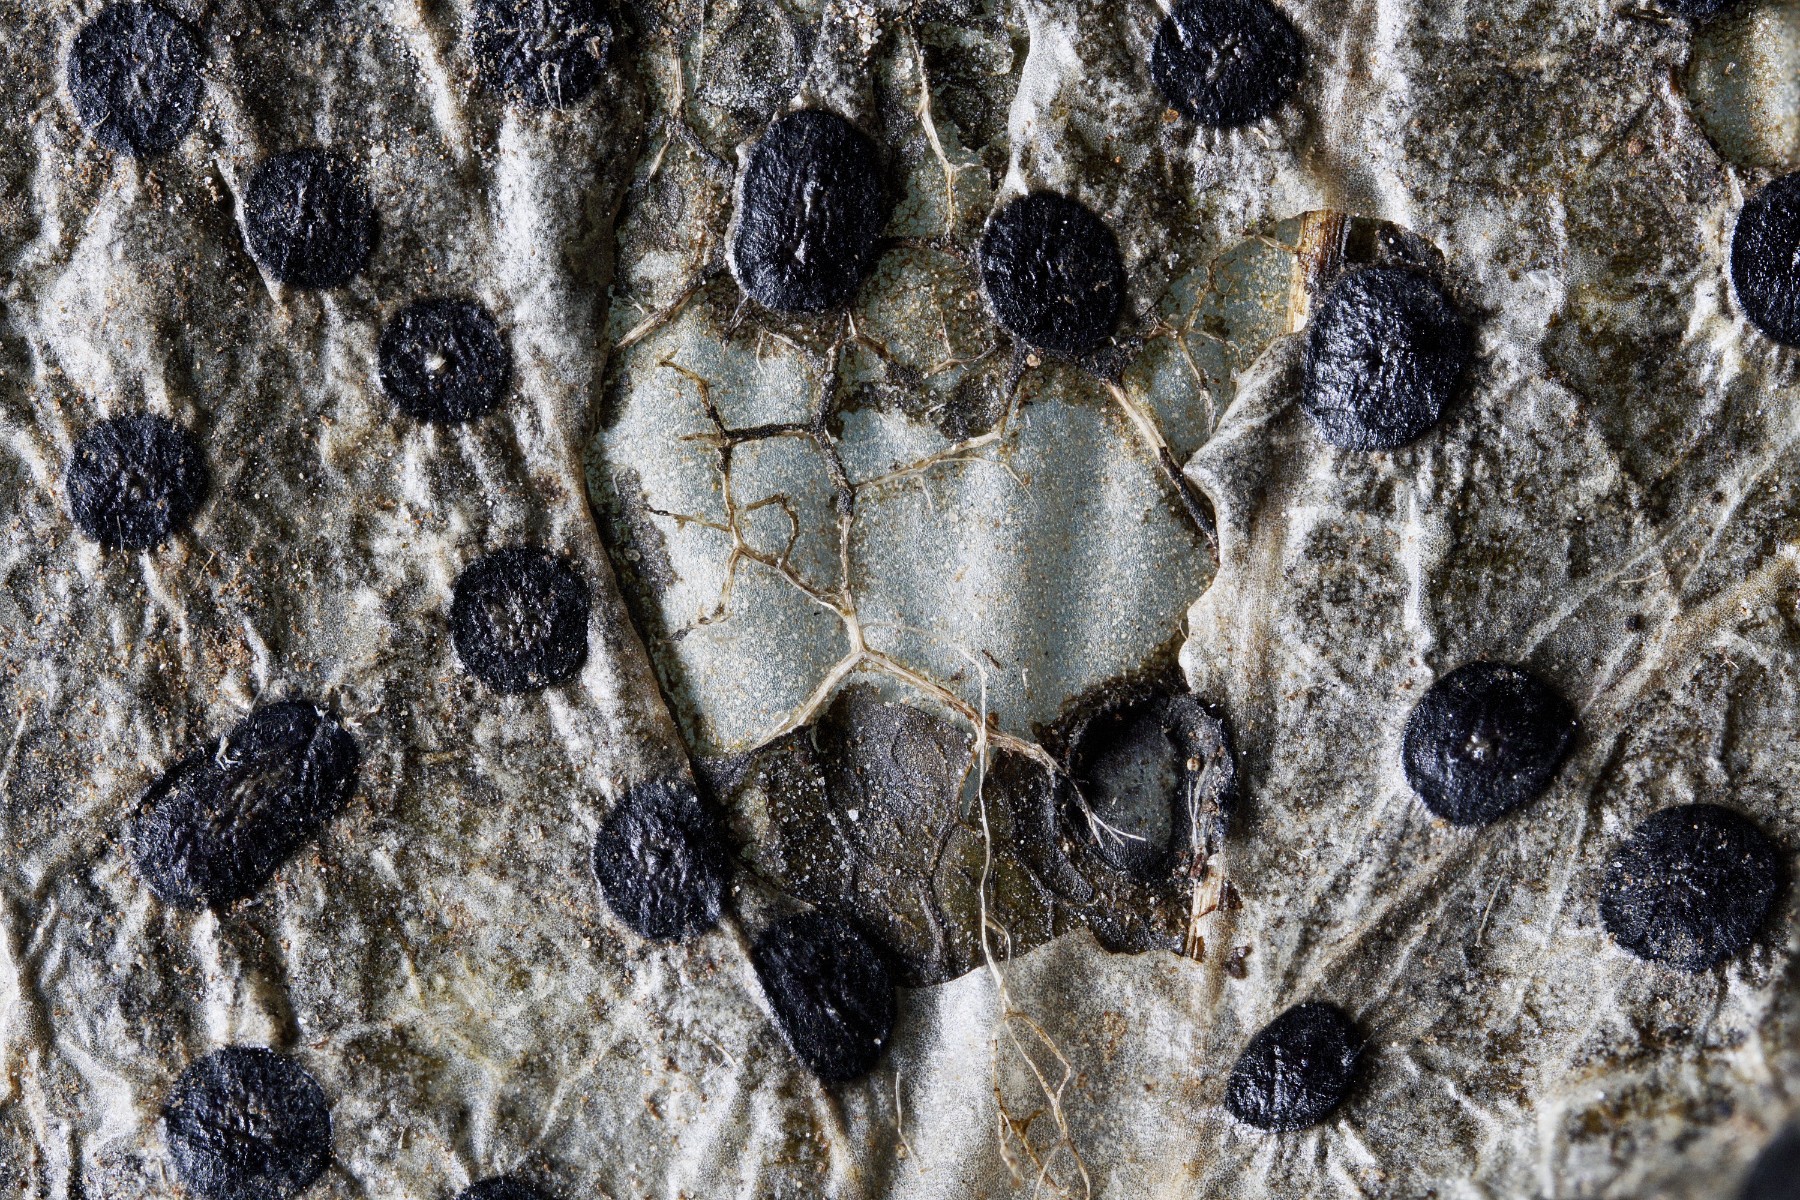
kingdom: Fungi
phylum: Ascomycota
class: Leotiomycetes
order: Phacidiales
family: Phacidiaceae
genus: Phacidium
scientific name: Phacidium lauri
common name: kristtorn-tandskive
